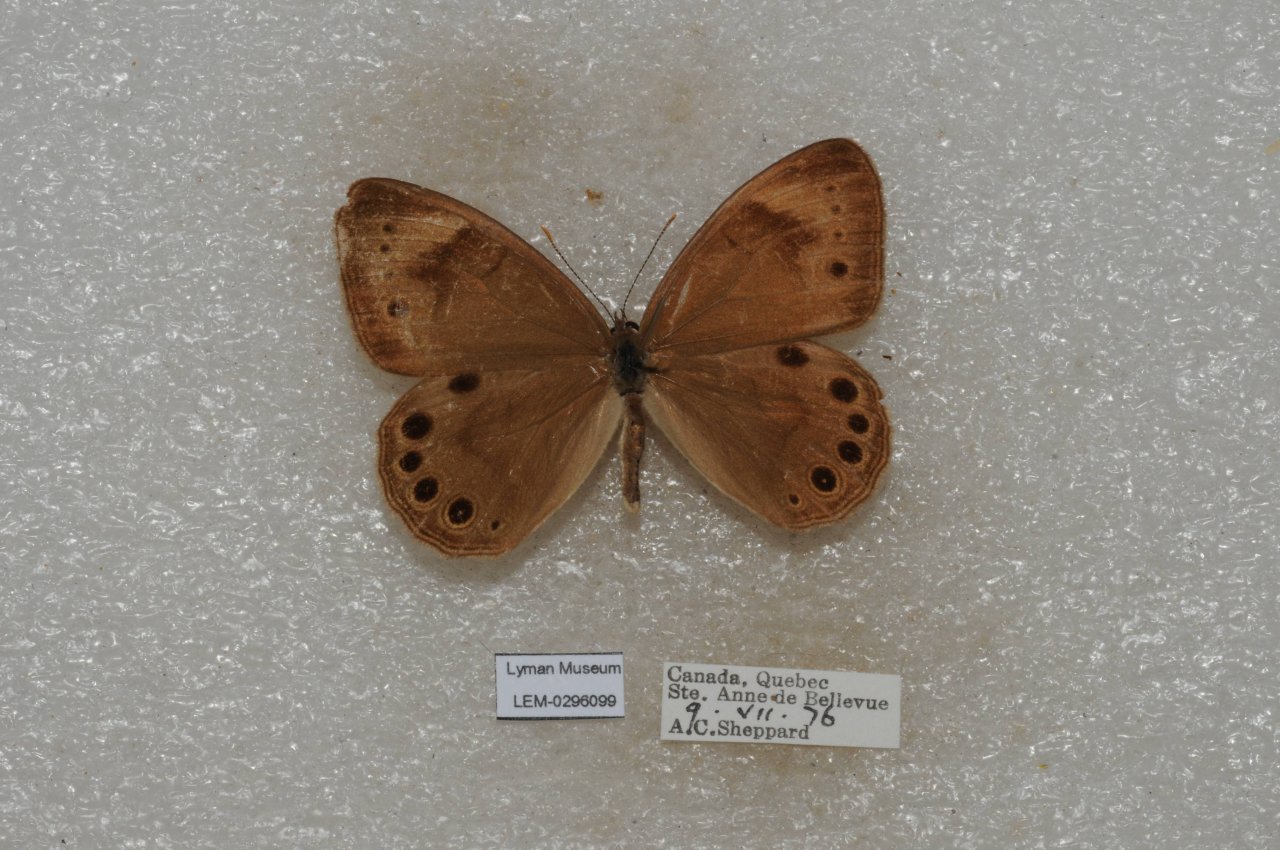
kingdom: Animalia
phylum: Arthropoda
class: Insecta
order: Lepidoptera
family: Nymphalidae
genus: Lethe
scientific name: Lethe eurydice
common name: Appalachian Eyed Brown
